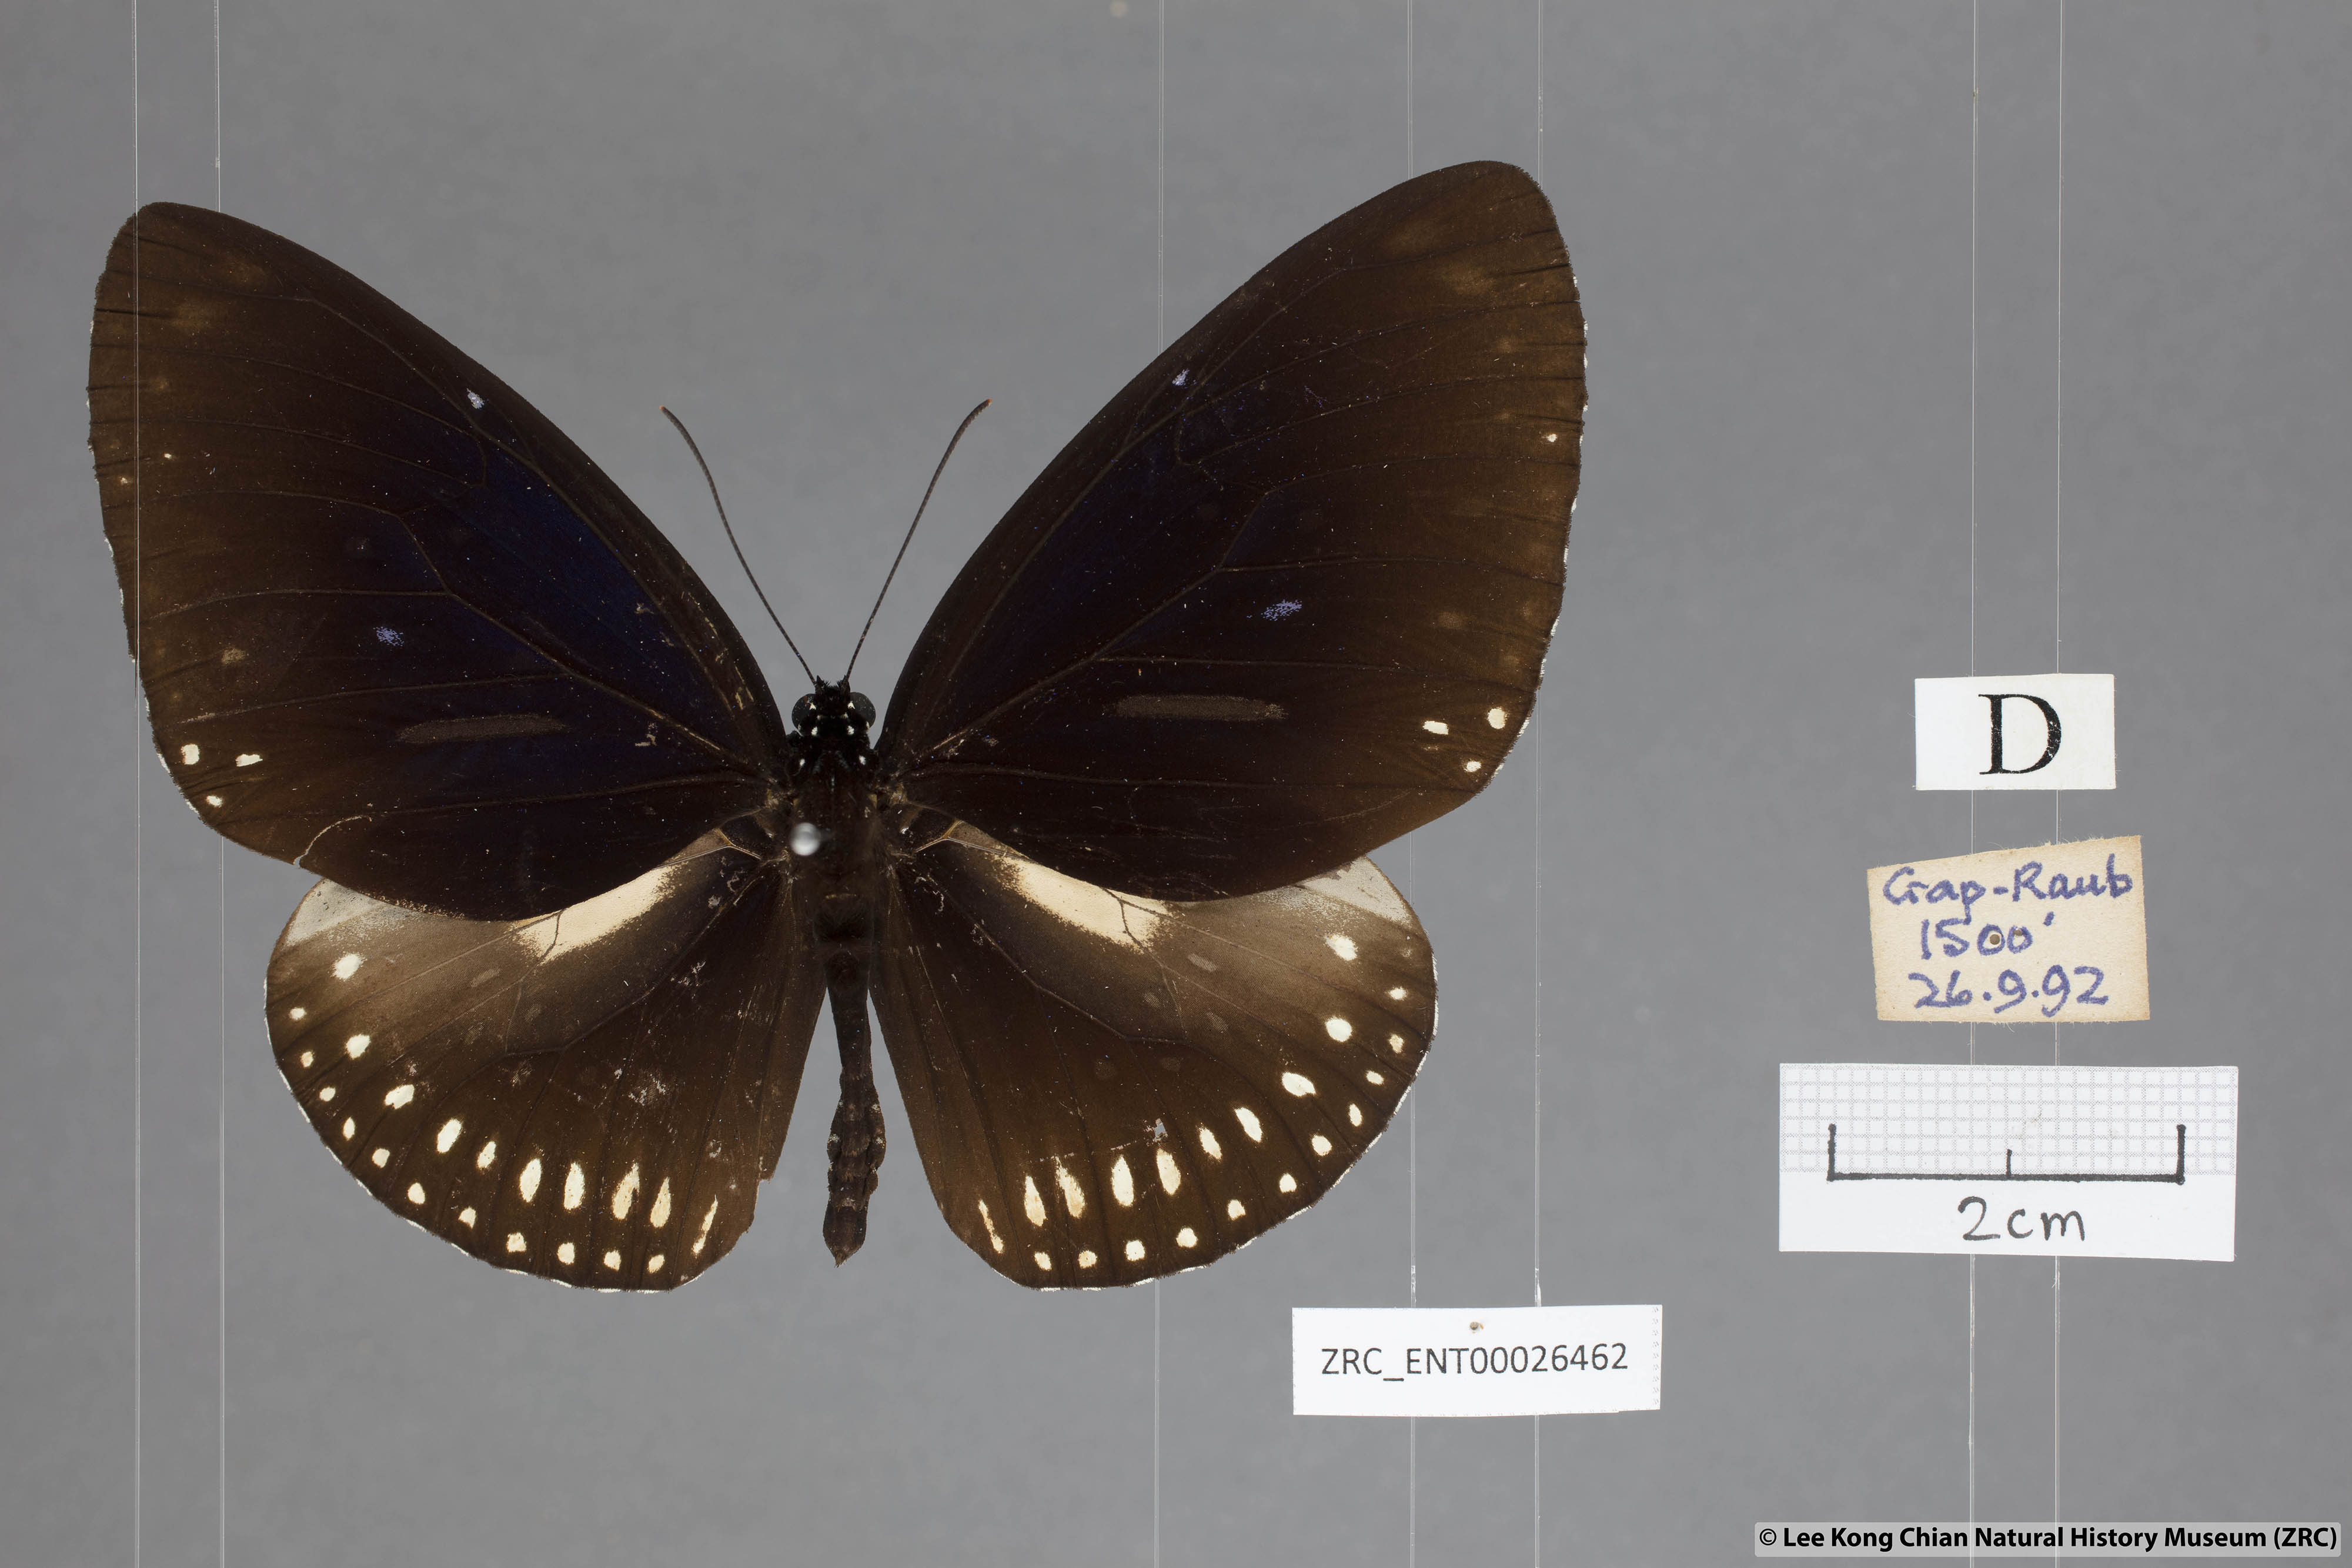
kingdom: Animalia
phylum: Arthropoda
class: Insecta
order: Lepidoptera
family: Nymphalidae
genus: Euploea
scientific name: Euploea midamus
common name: Blue-spotted crow butterfly
